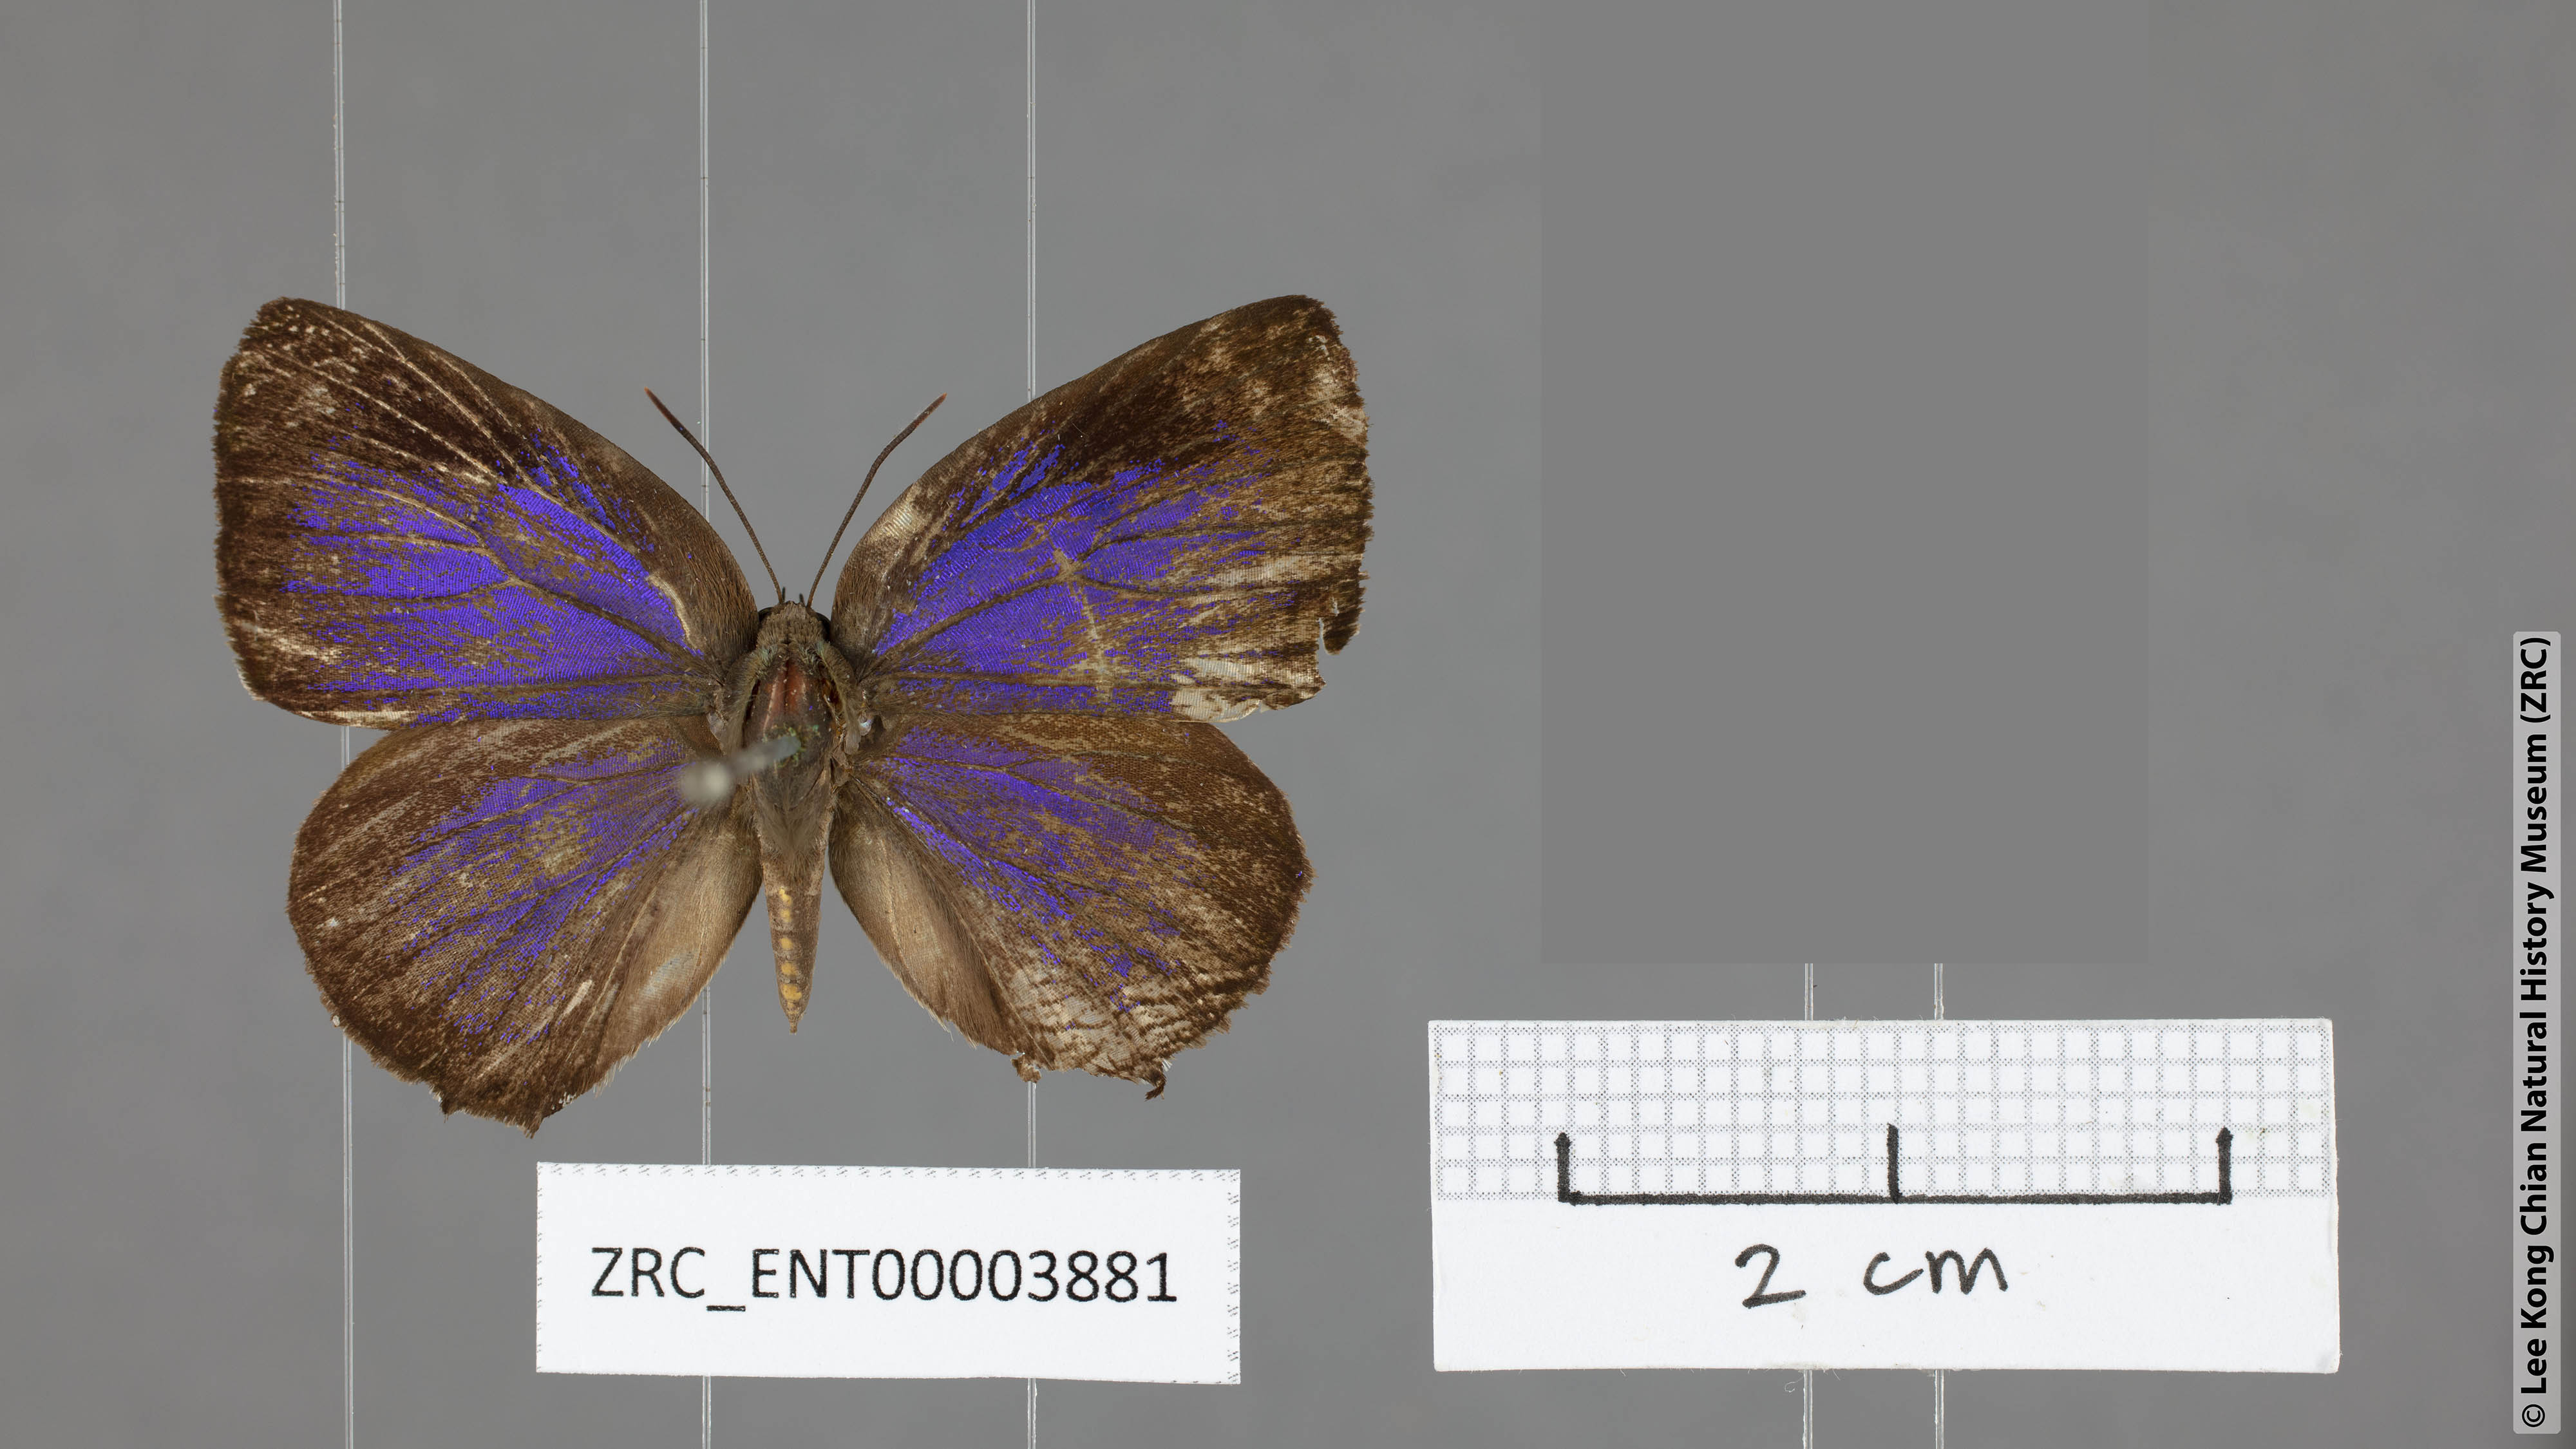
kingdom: Animalia
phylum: Arthropoda
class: Insecta
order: Lepidoptera
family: Lycaenidae
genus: Arhopala
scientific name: Arhopala
